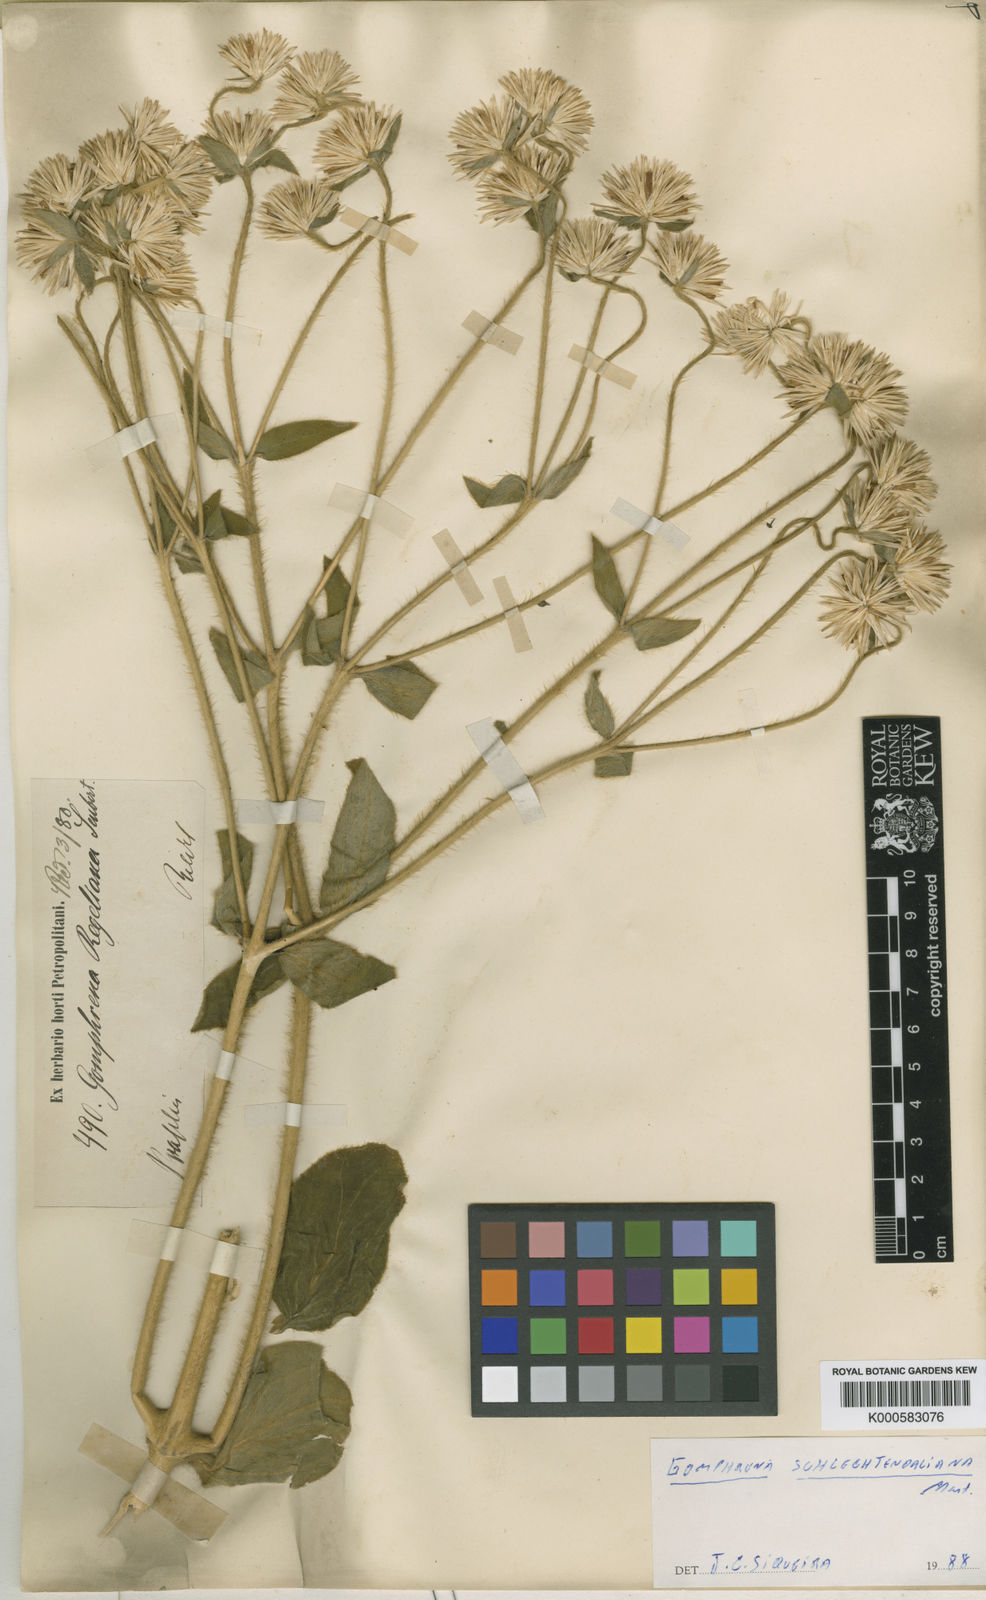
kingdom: Plantae
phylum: Tracheophyta
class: Magnoliopsida
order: Caryophyllales
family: Amaranthaceae
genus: Gomphrena
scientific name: Gomphrena regeliana
